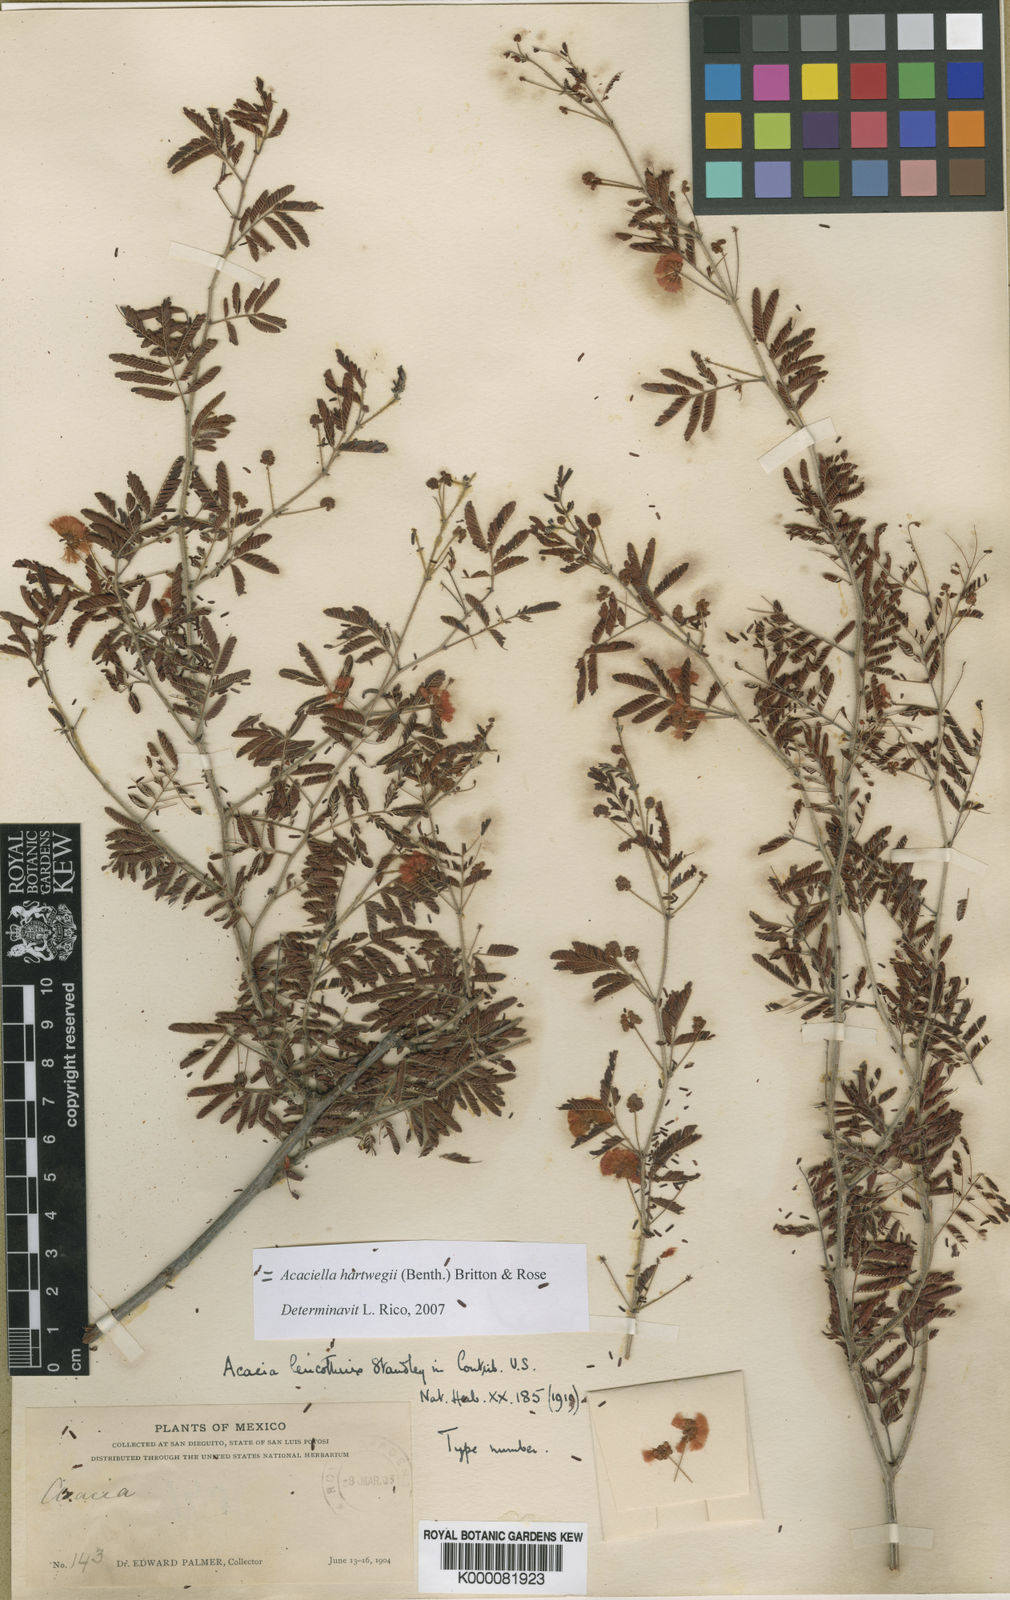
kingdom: Plantae
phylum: Tracheophyta
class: Magnoliopsida
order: Fabales
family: Fabaceae
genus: Acaciella
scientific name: Acaciella hartwegii
